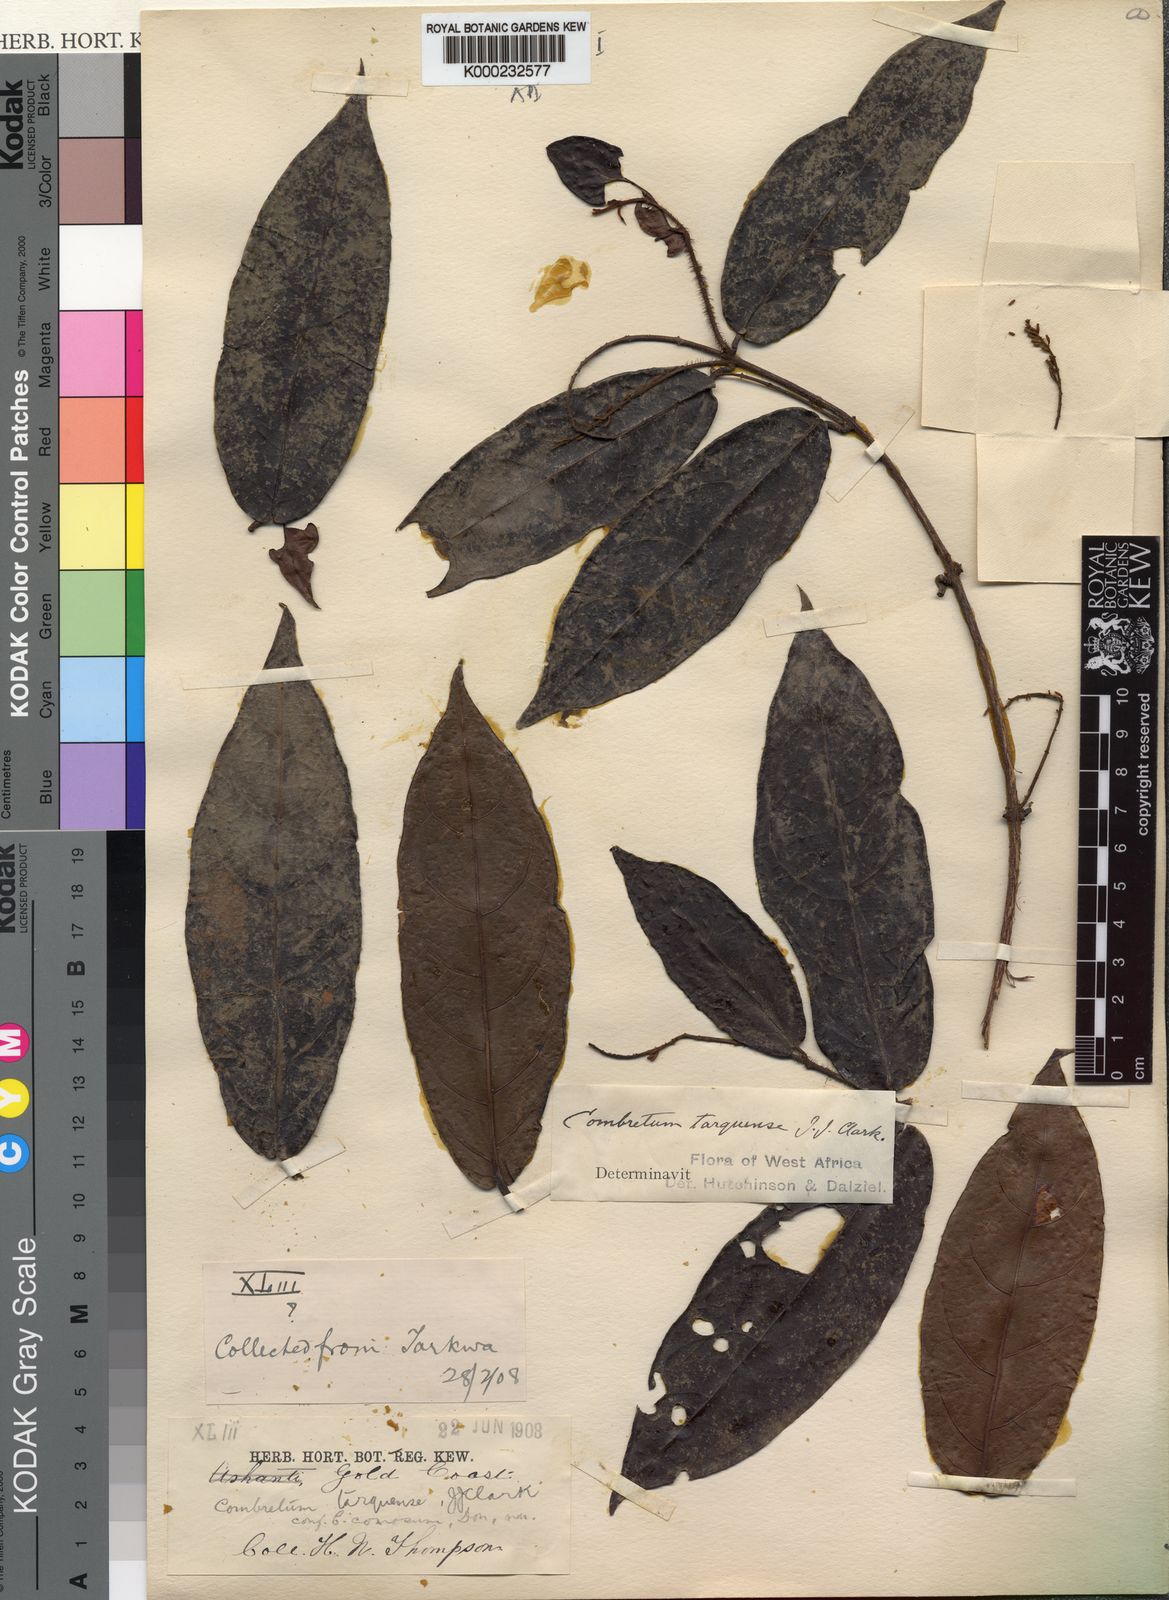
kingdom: Plantae
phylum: Tracheophyta
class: Magnoliopsida
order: Myrtales
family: Combretaceae
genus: Combretum
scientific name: Combretum
